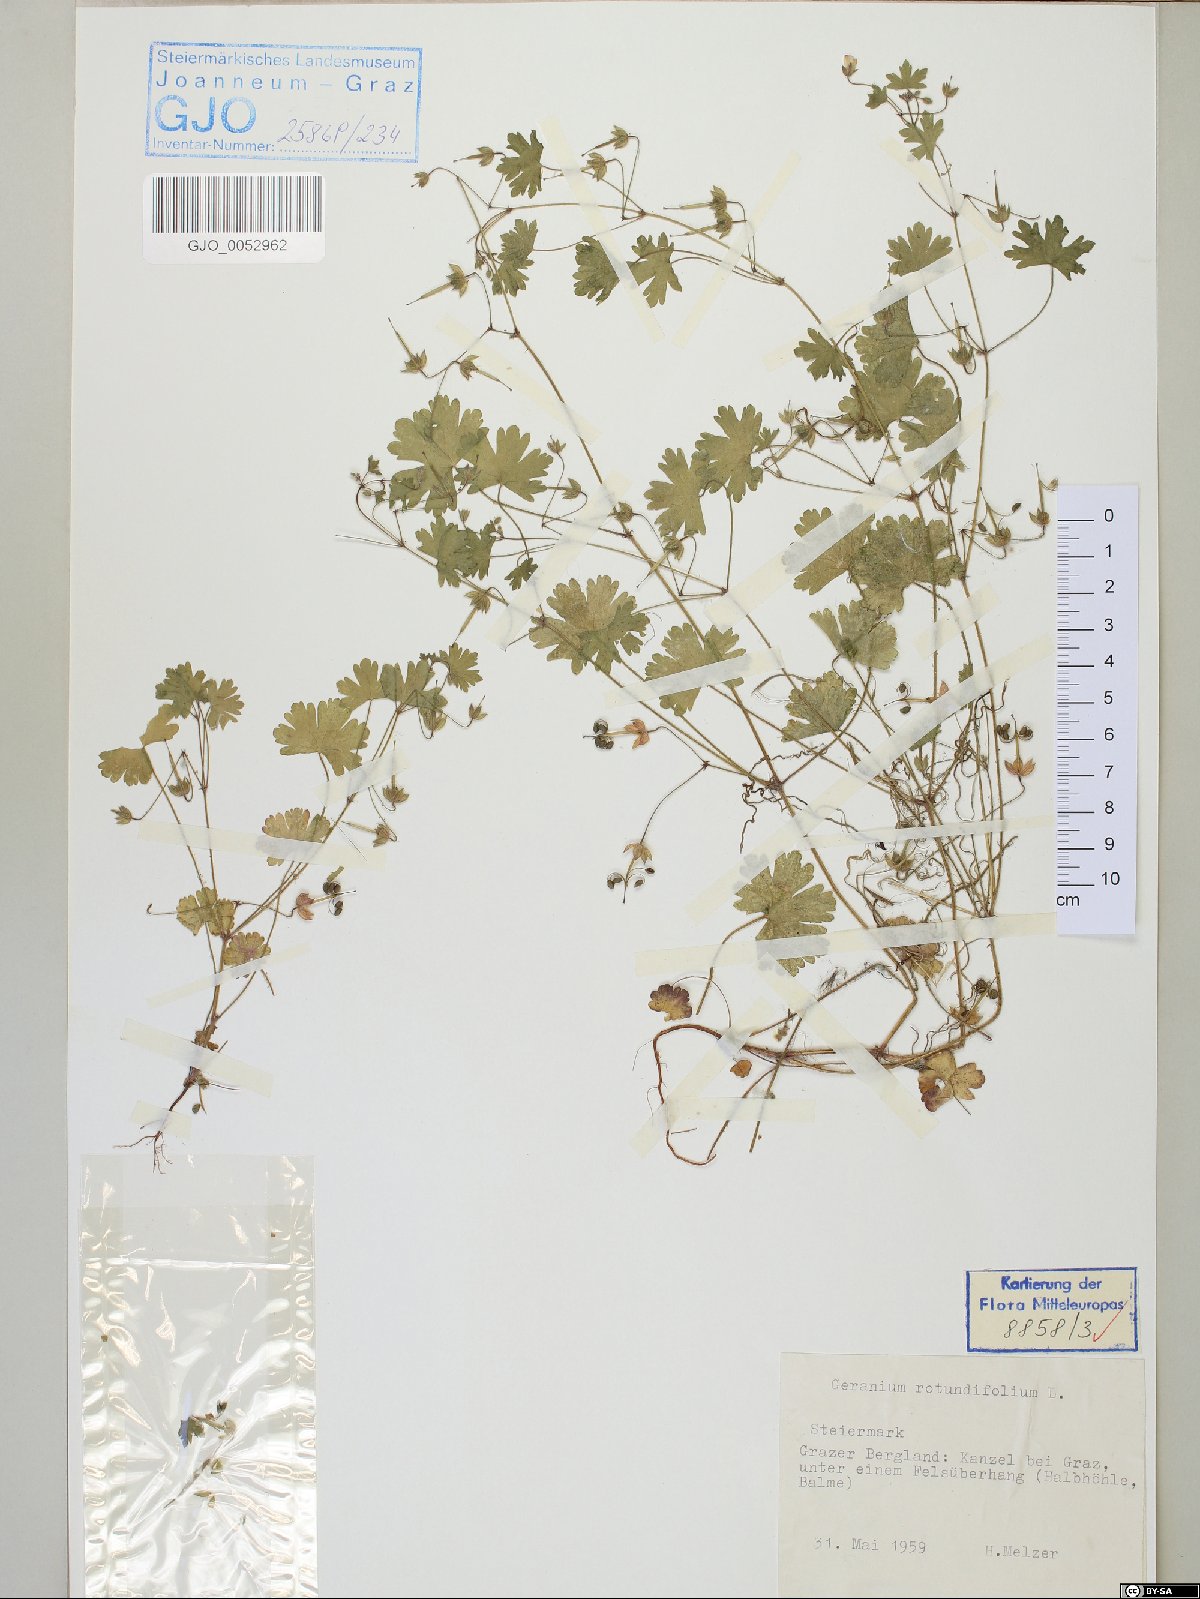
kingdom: Plantae
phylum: Tracheophyta
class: Magnoliopsida
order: Geraniales
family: Geraniaceae
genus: Geranium
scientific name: Geranium rotundifolium
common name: Round-leaved crane's-bill
